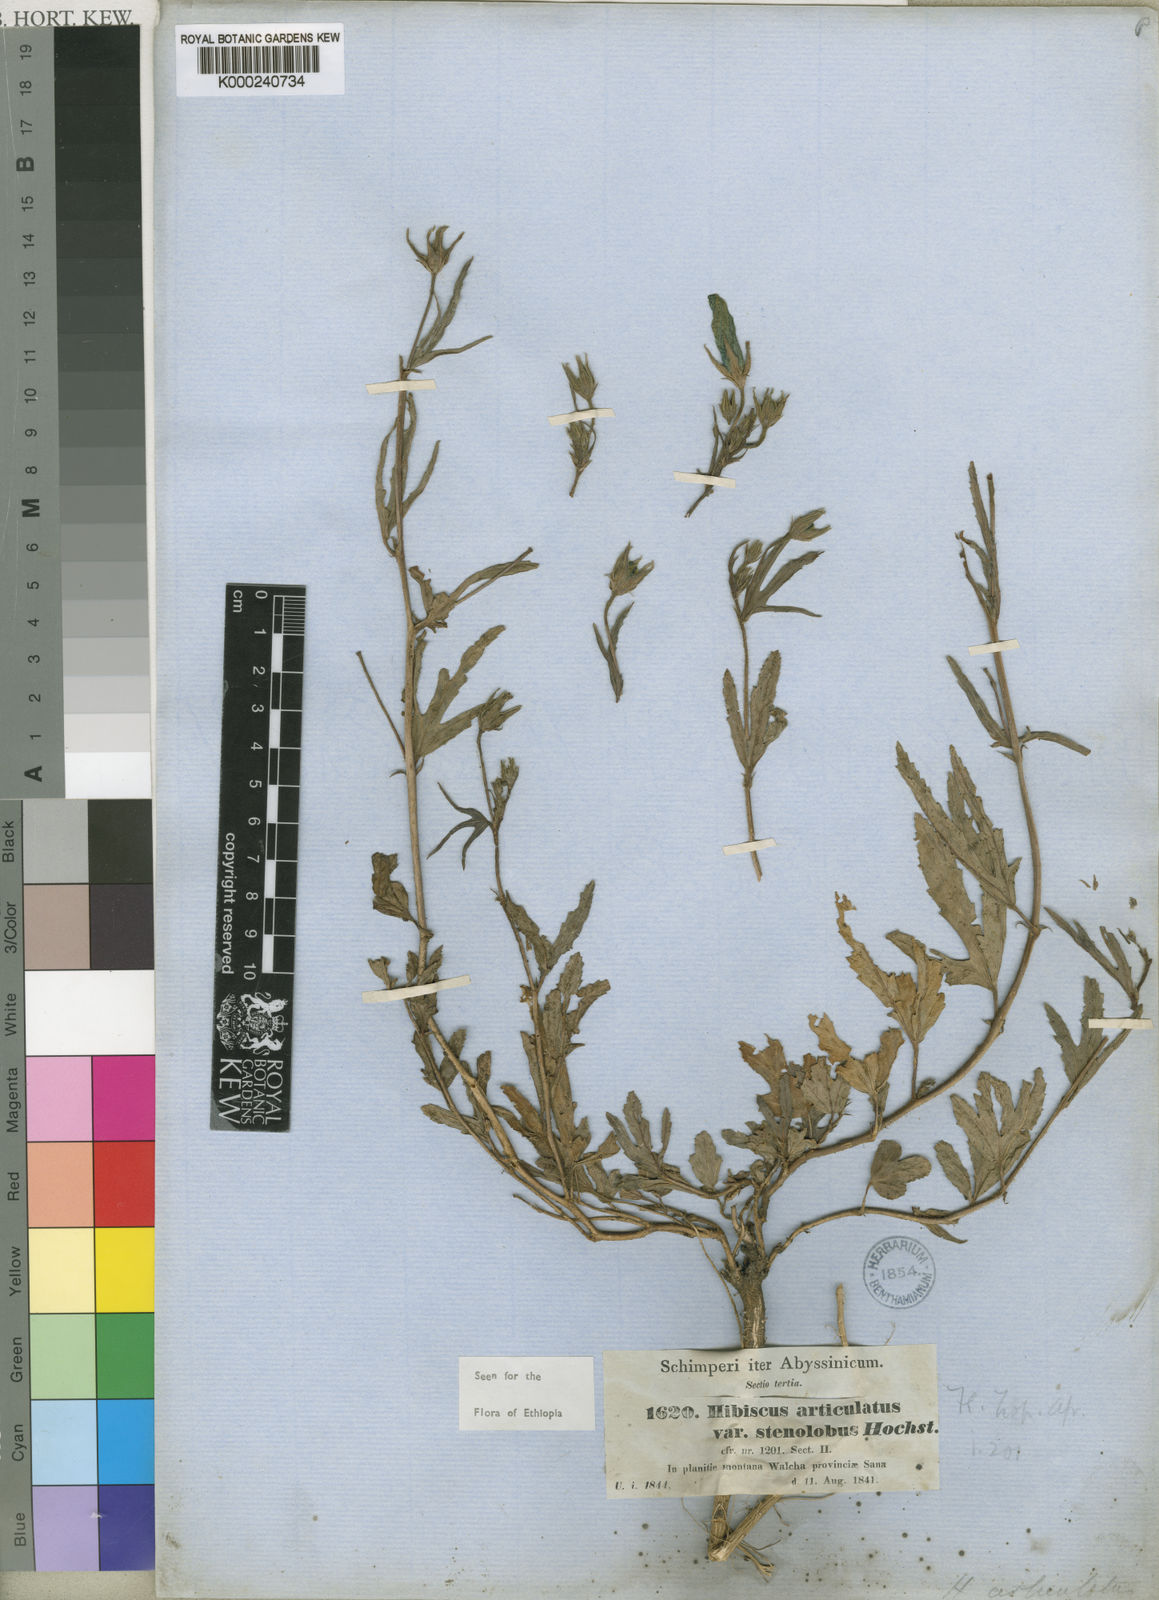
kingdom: Plantae
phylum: Tracheophyta
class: Magnoliopsida
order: Malvales
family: Malvaceae
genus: Hibiscus
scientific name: Hibiscus articulatus
